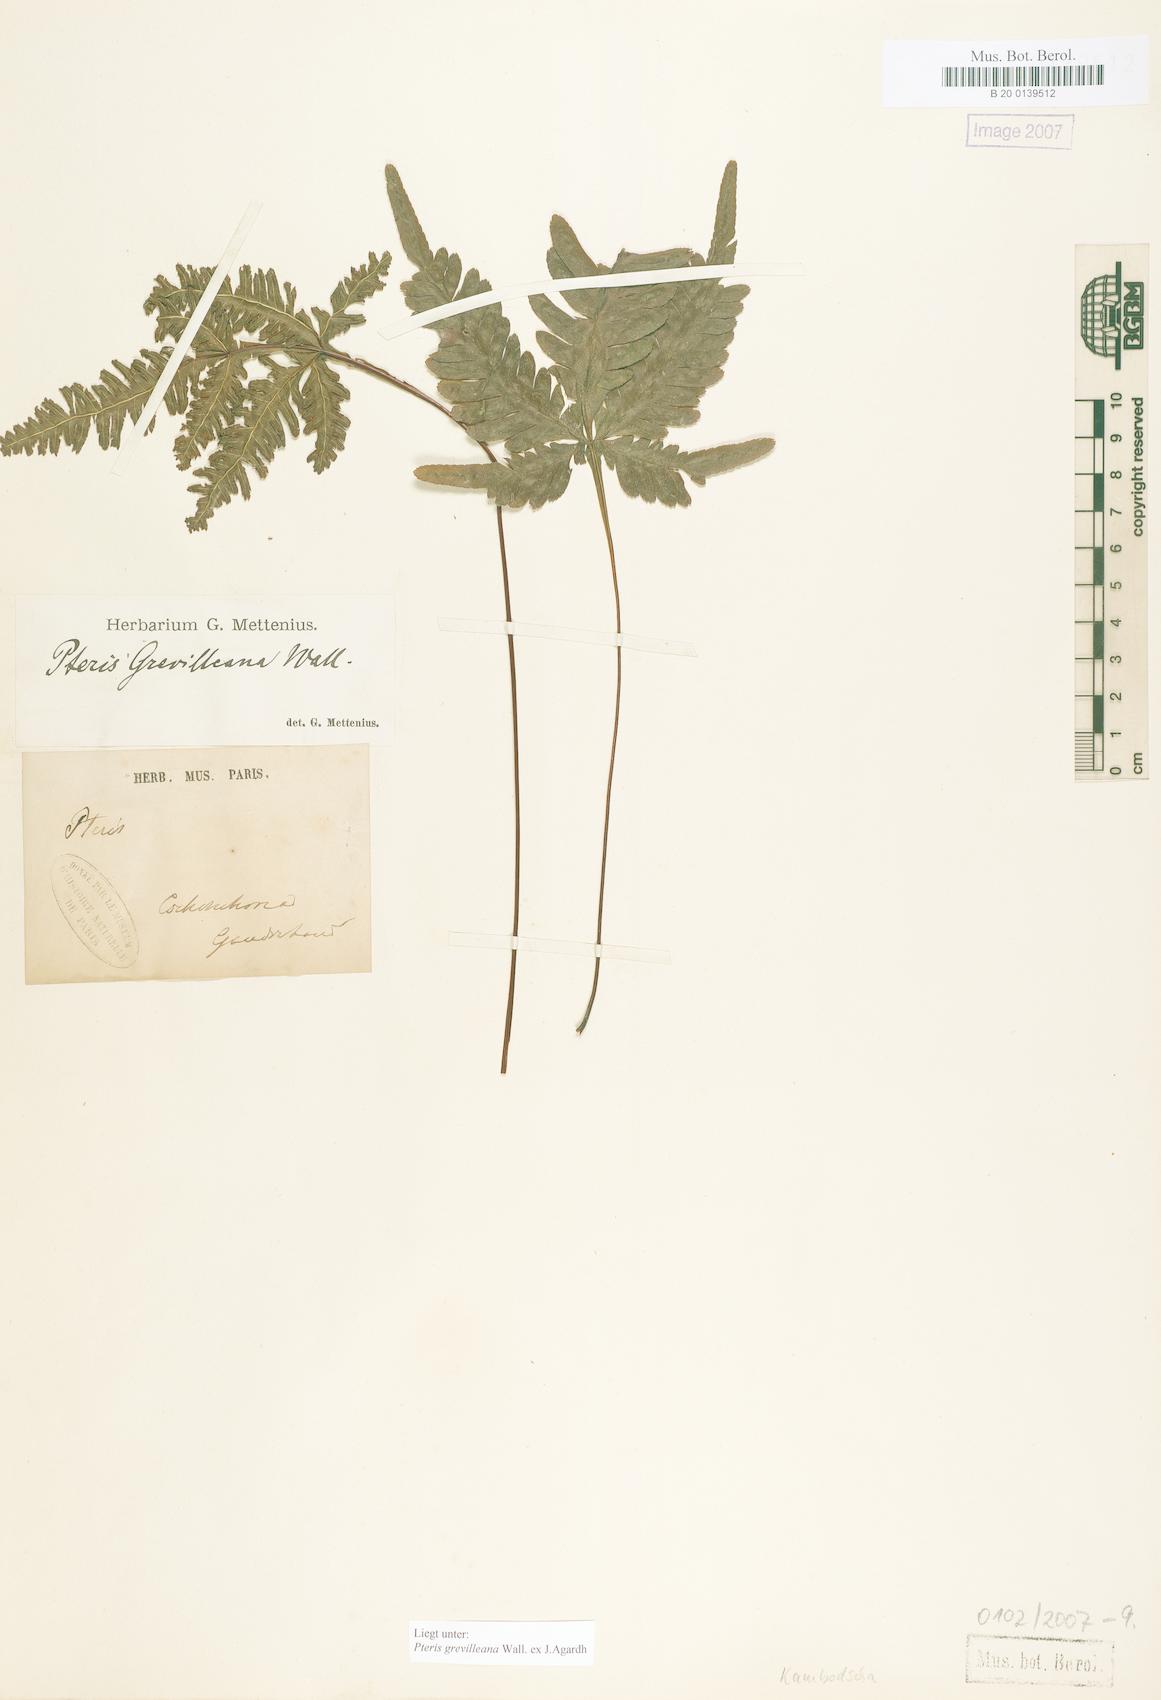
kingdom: Plantae
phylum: Tracheophyta
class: Polypodiopsida
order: Polypodiales
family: Pteridaceae
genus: Pteris
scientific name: Pteris grevilleana
